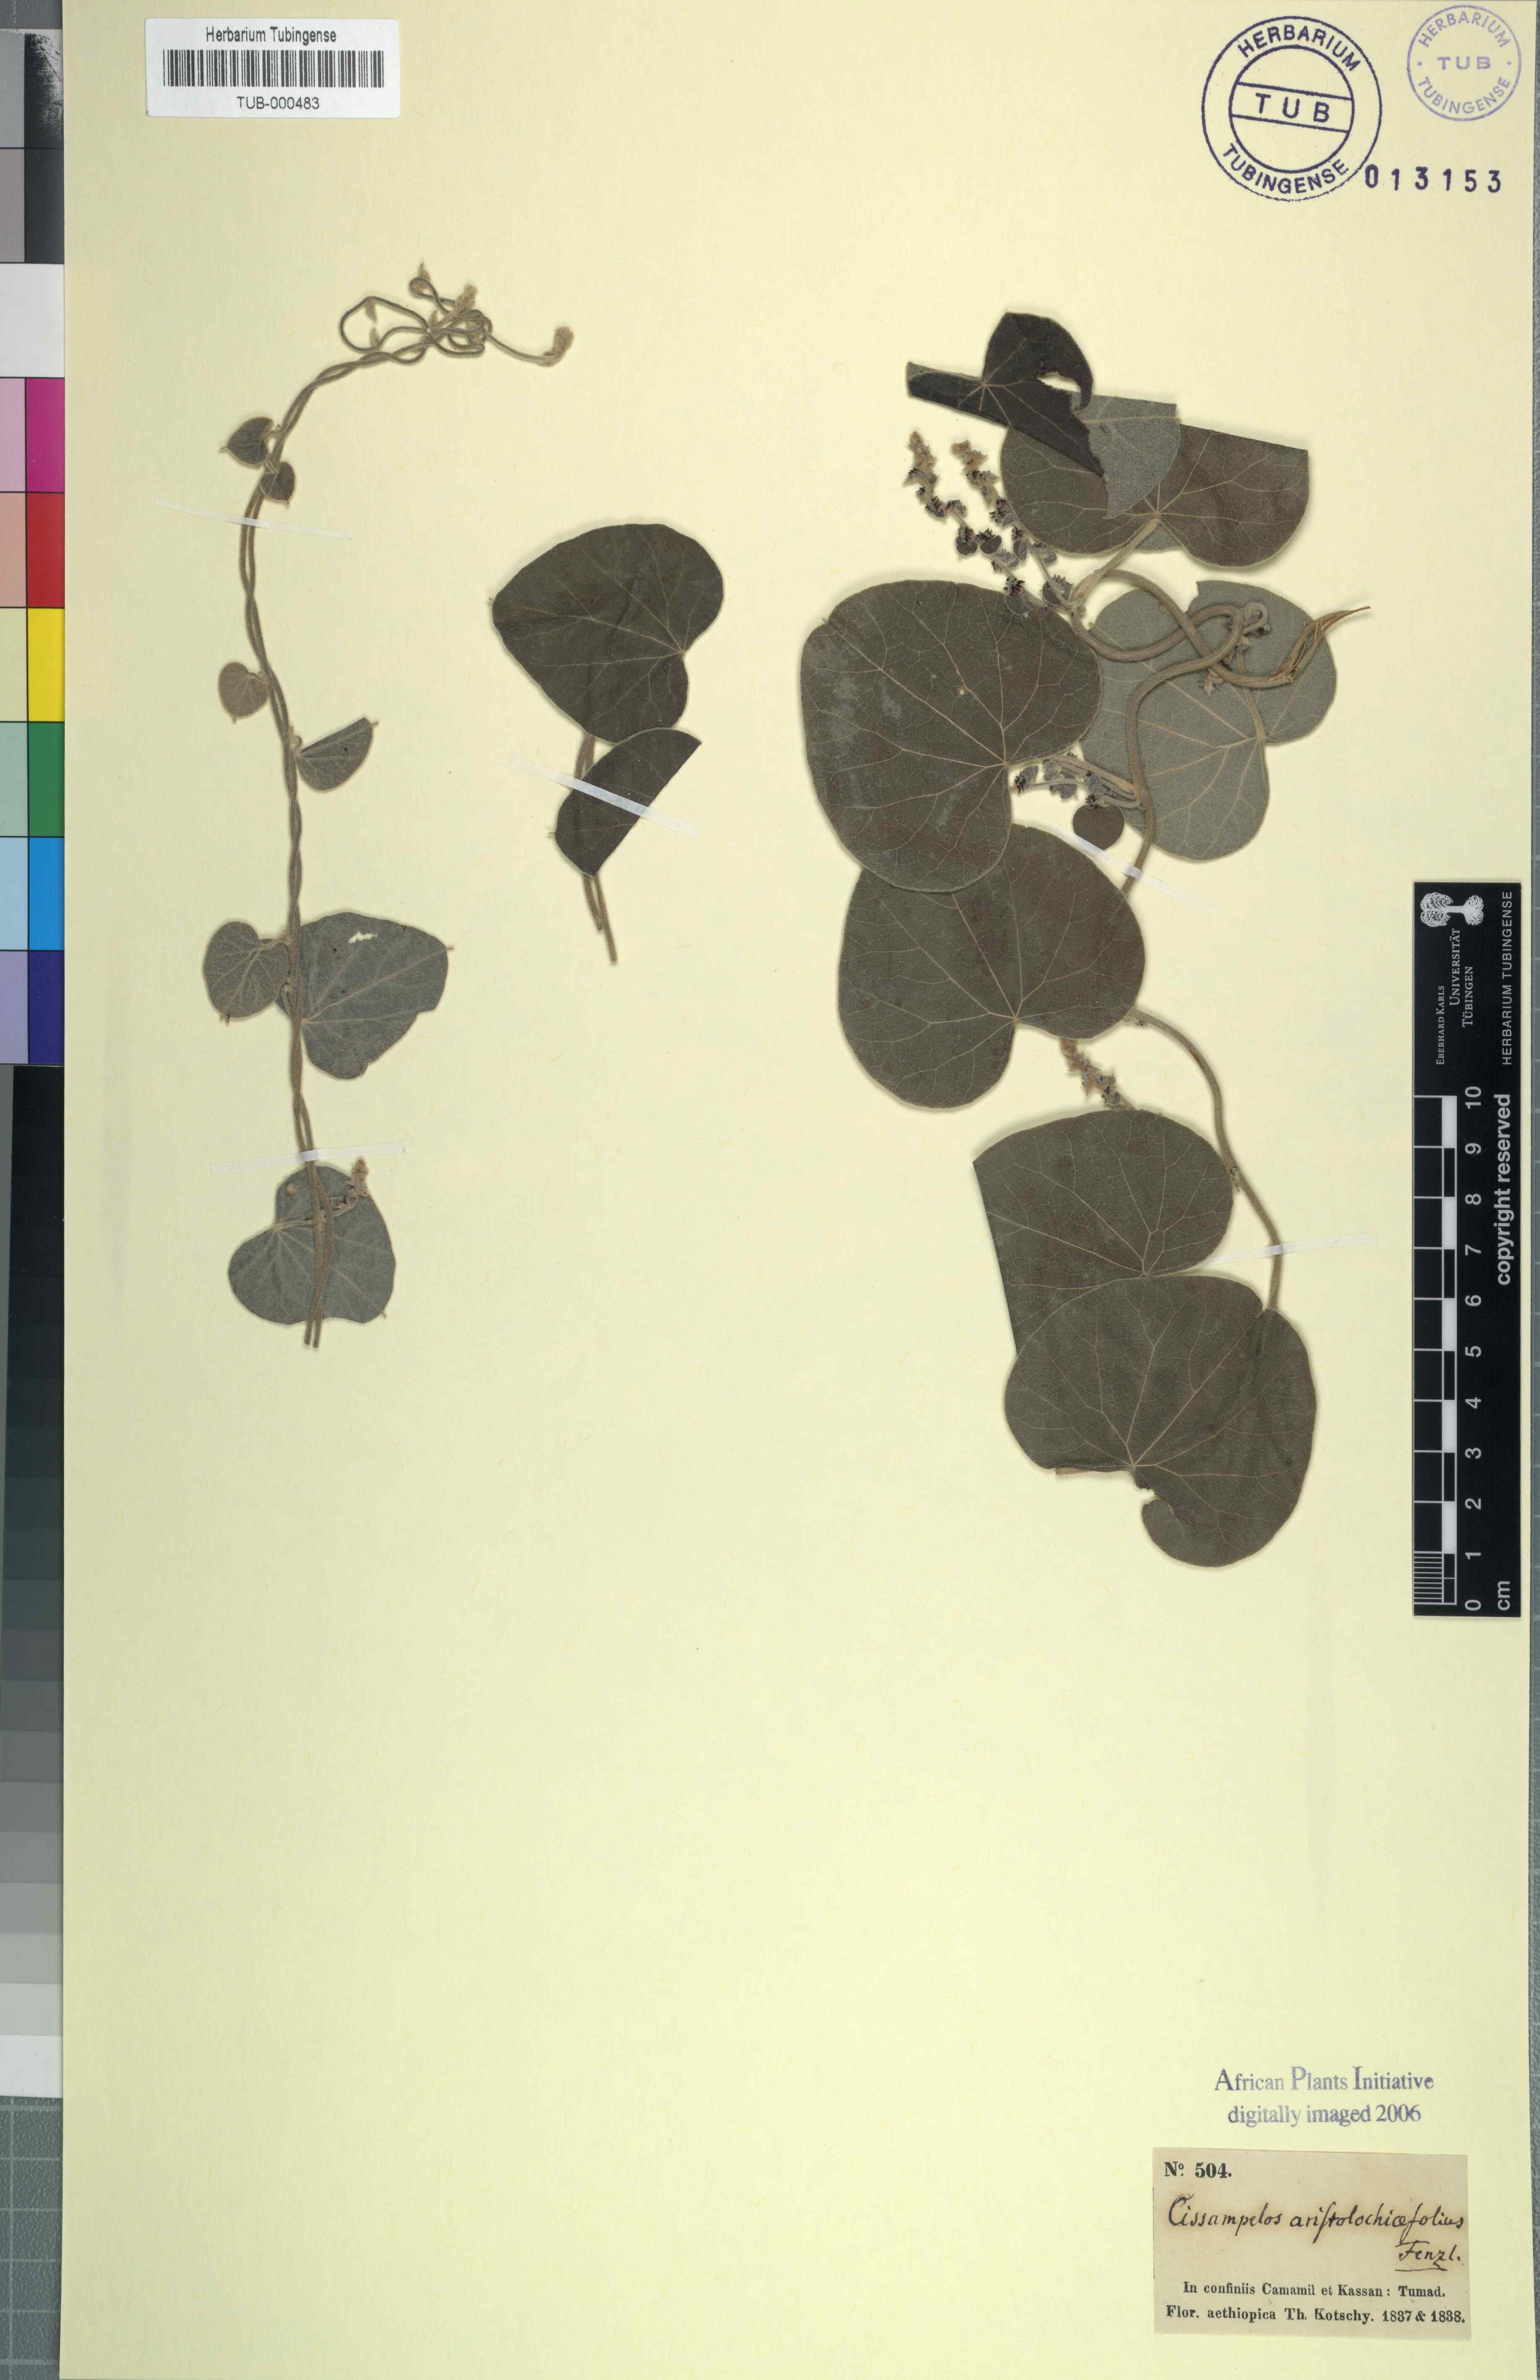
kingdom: Plantae
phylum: Tracheophyta
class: Magnoliopsida
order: Ranunculales
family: Menispermaceae
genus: Cissampelos
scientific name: Cissampelos pareira
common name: Velvetleaf
